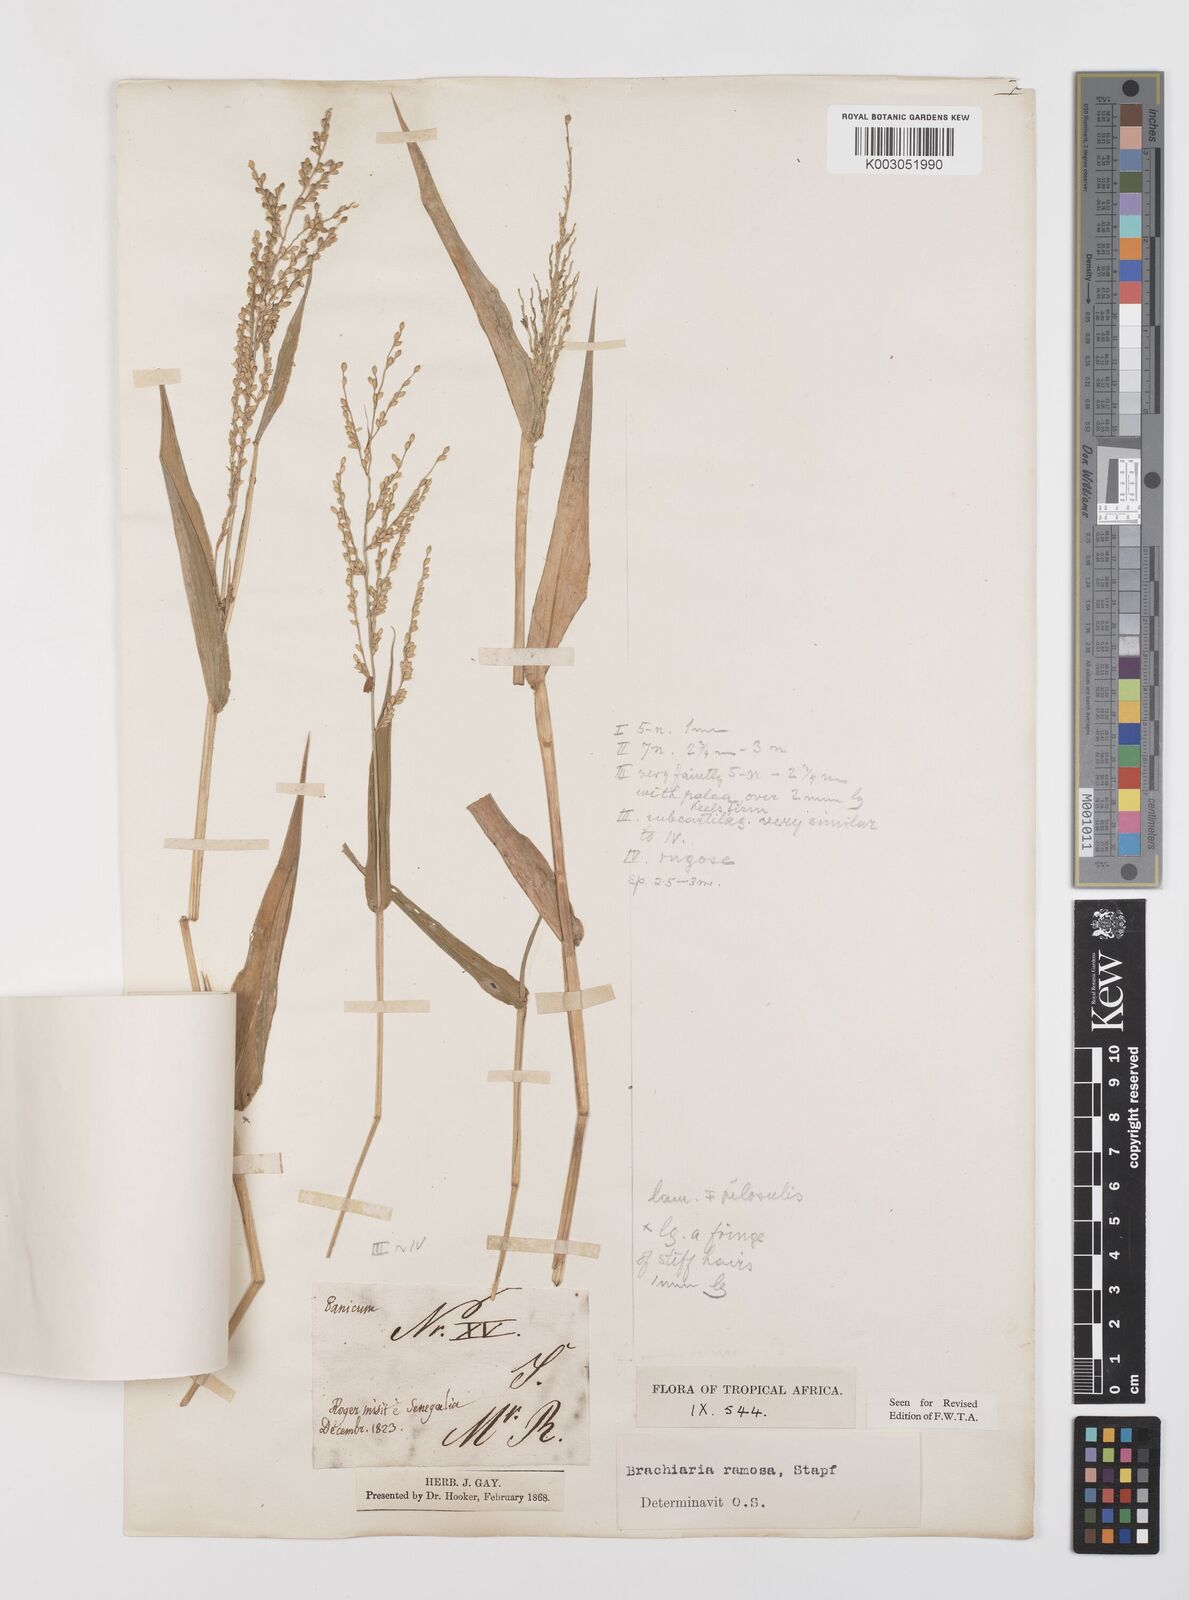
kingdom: Plantae
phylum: Tracheophyta
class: Liliopsida
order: Poales
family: Poaceae
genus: Urochloa
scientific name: Urochloa ramosa
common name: Browntop millet
